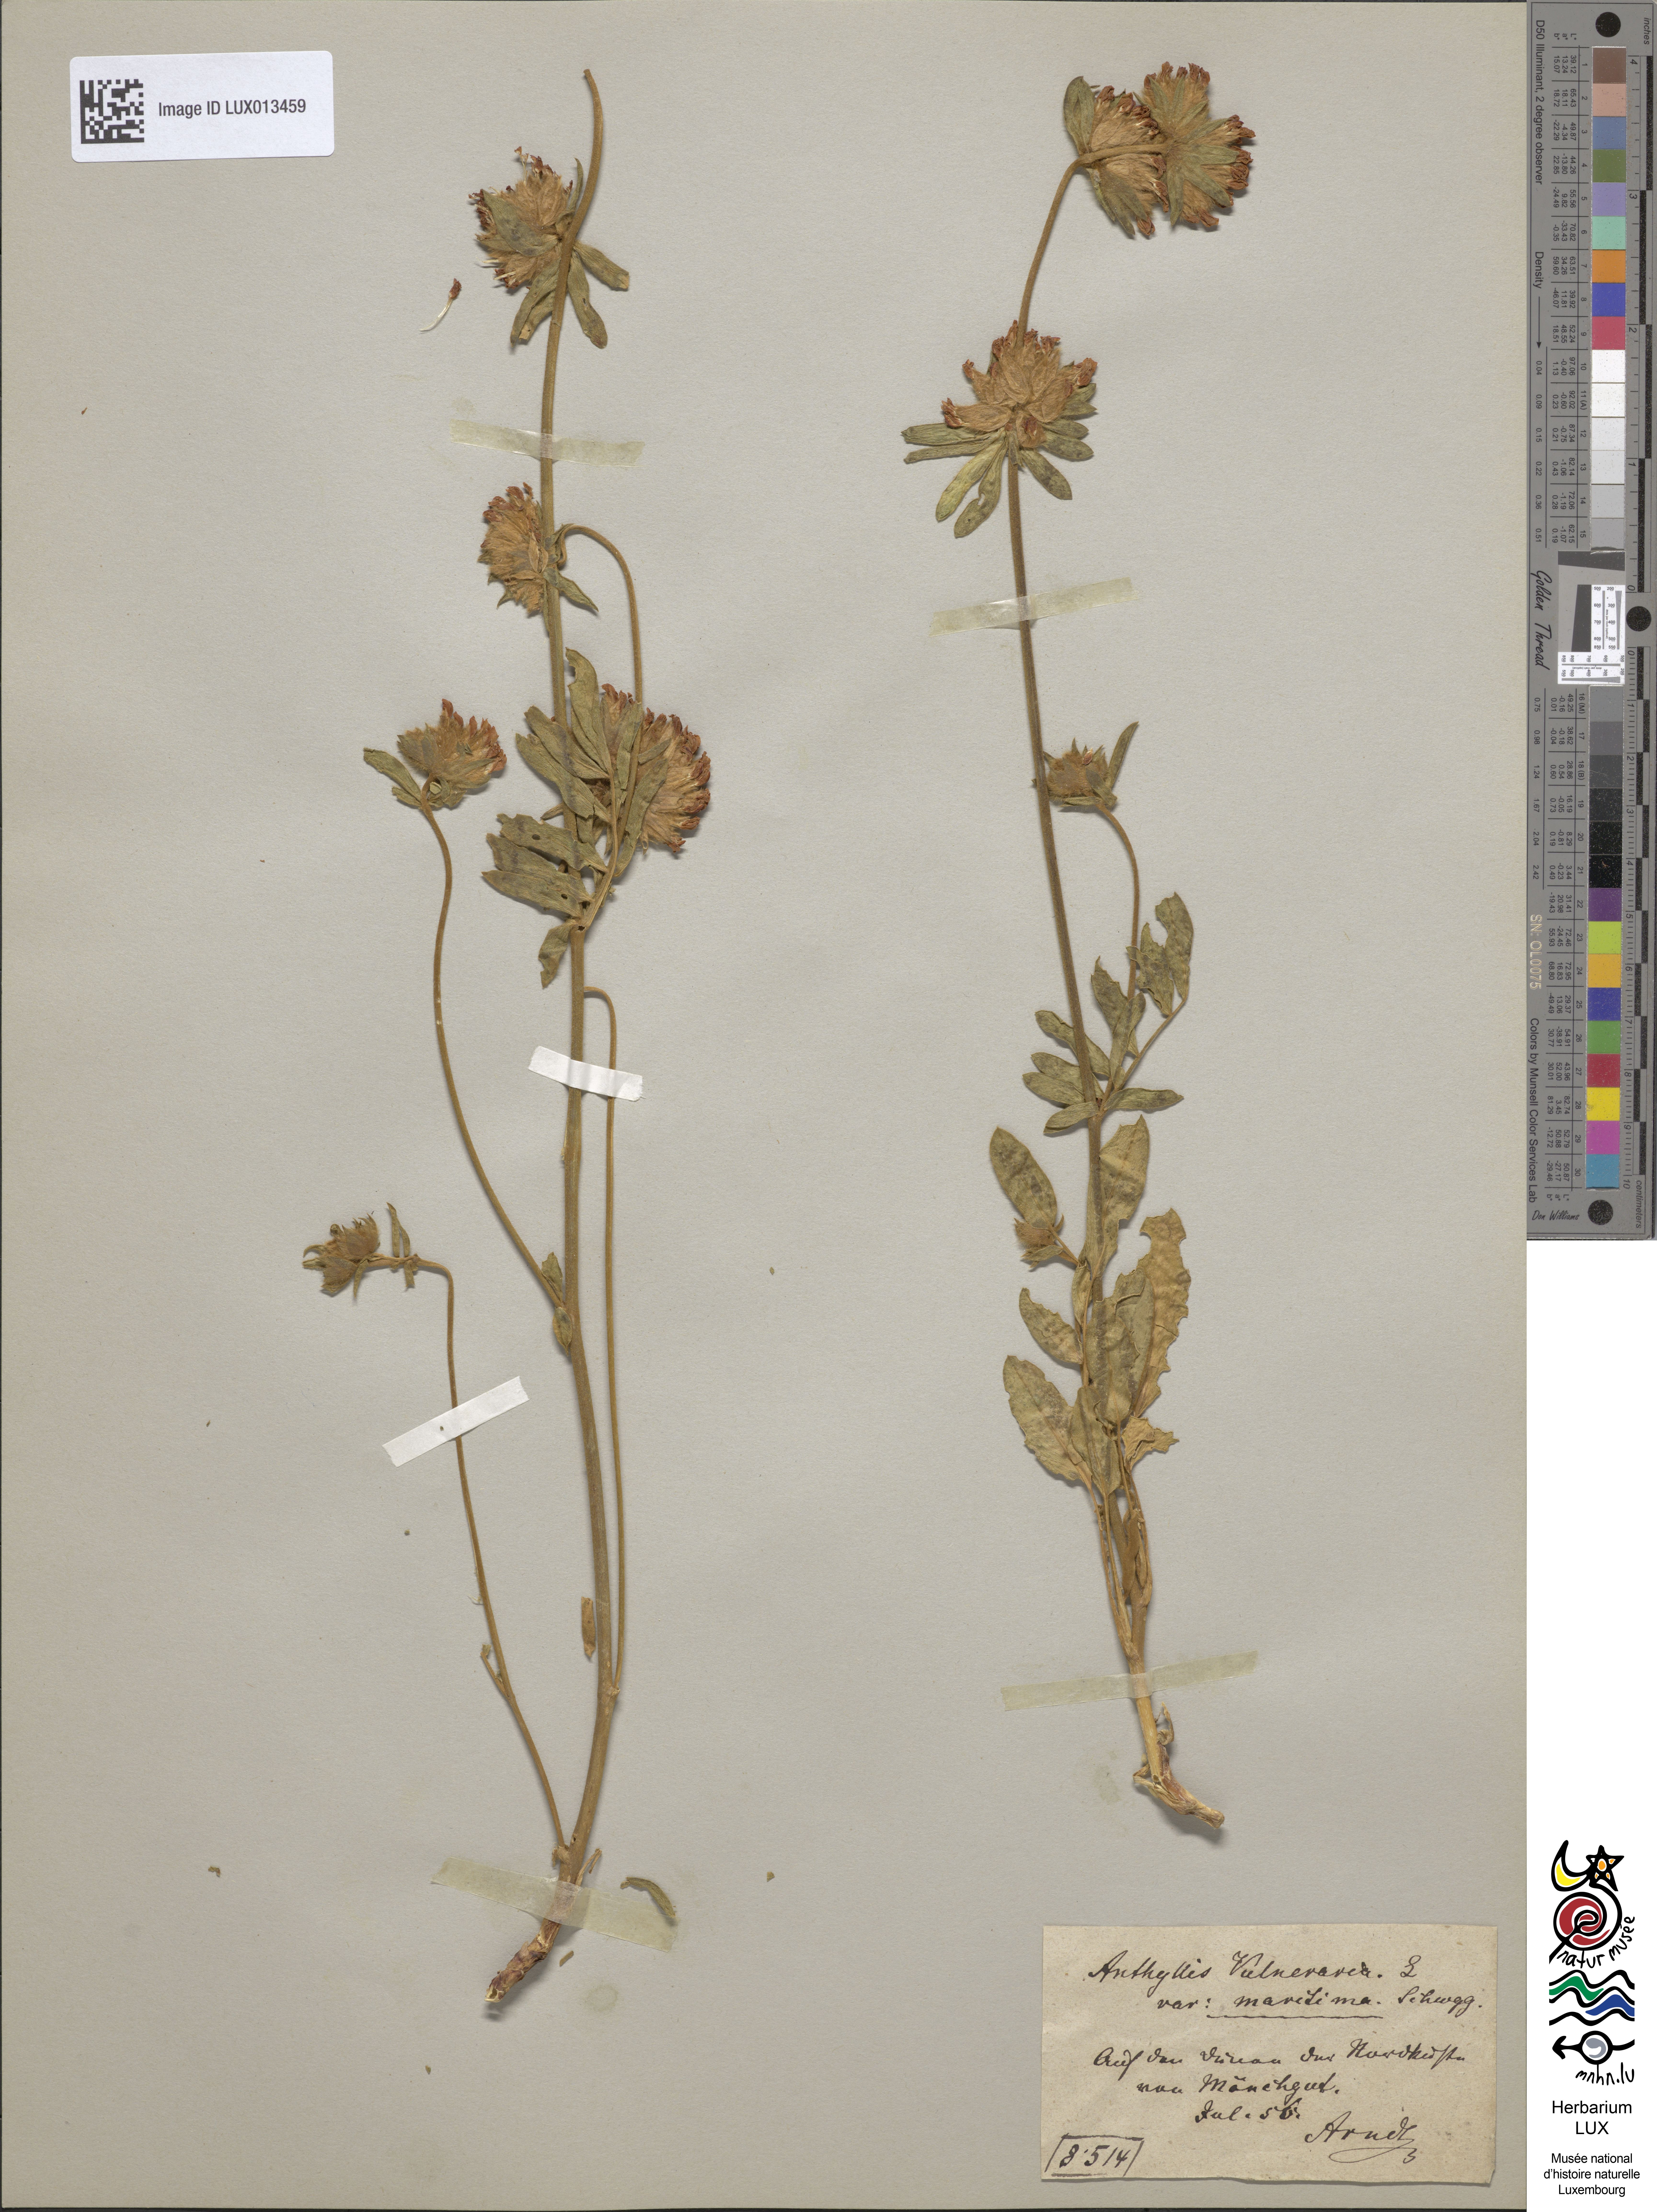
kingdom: Plantae
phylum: Tracheophyta
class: Magnoliopsida
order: Fabales
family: Fabaceae
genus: Anthyllis
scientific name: Anthyllis vulneraria
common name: Kidney vetch
